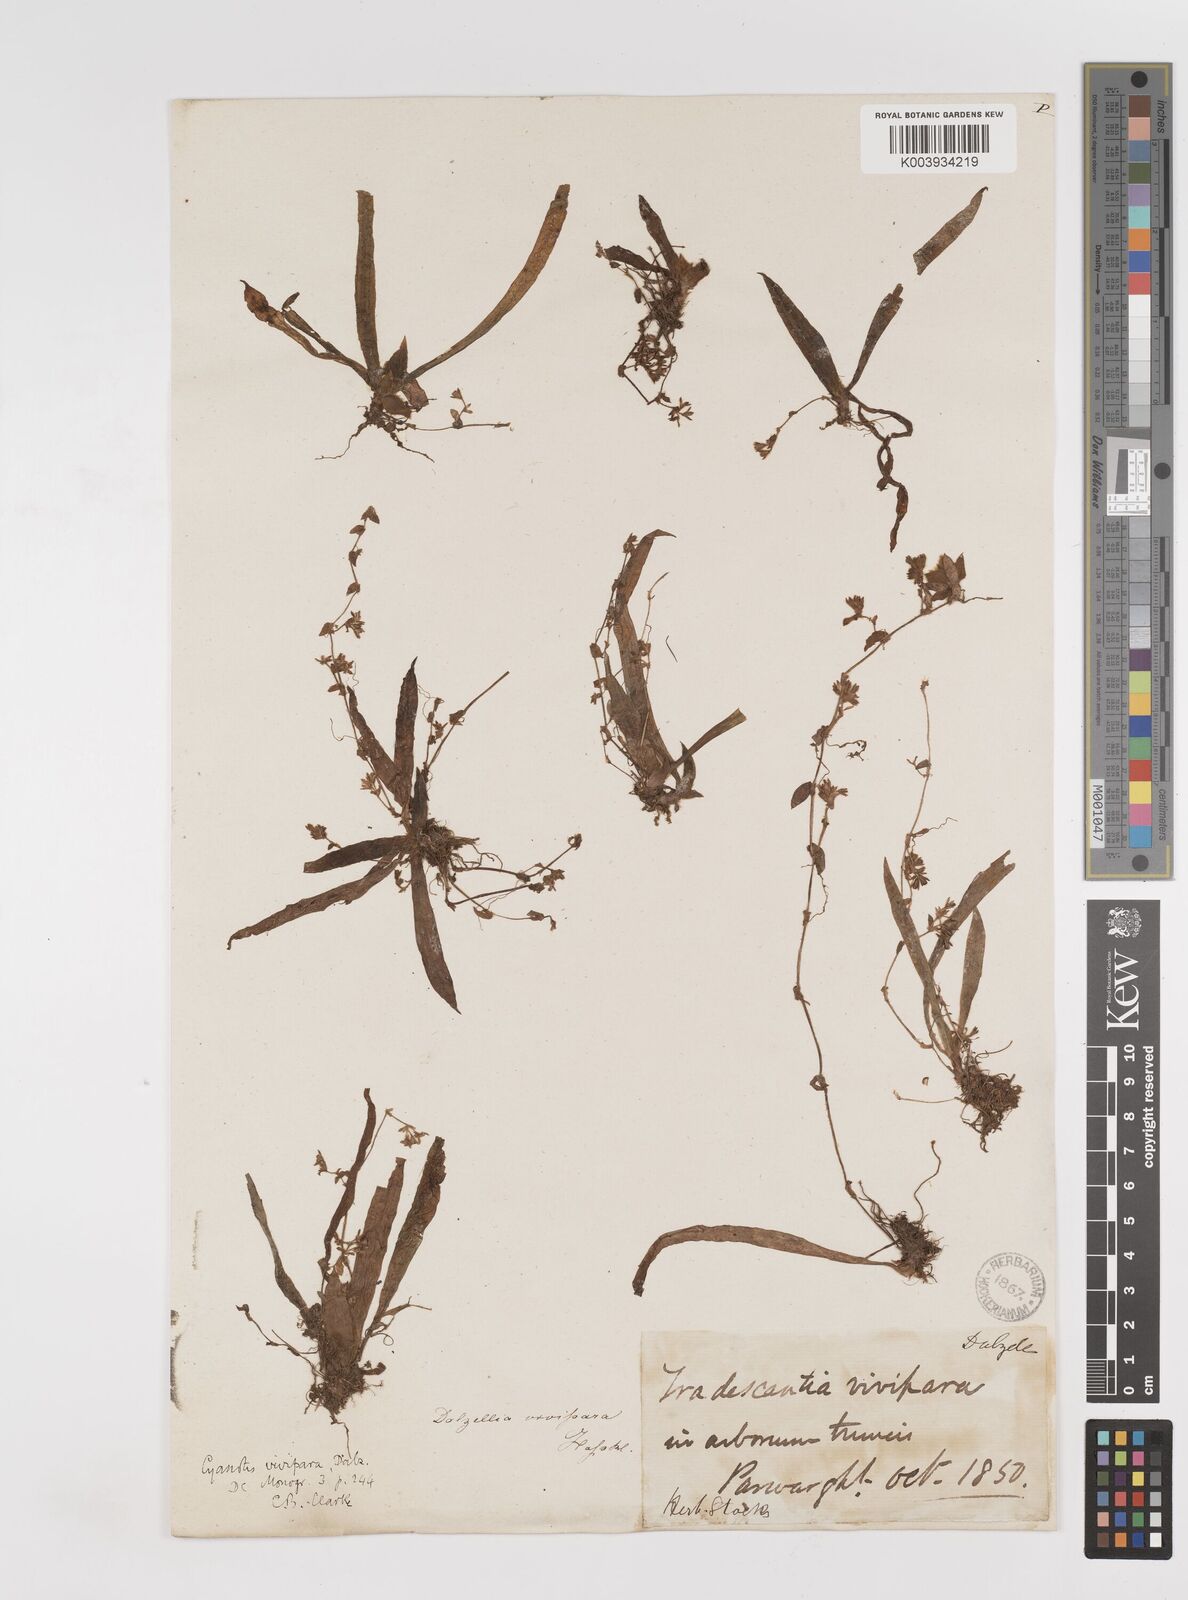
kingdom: Plantae
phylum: Tracheophyta
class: Liliopsida
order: Commelinales
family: Commelinaceae
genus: Cyanotis
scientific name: Cyanotis vivipara
